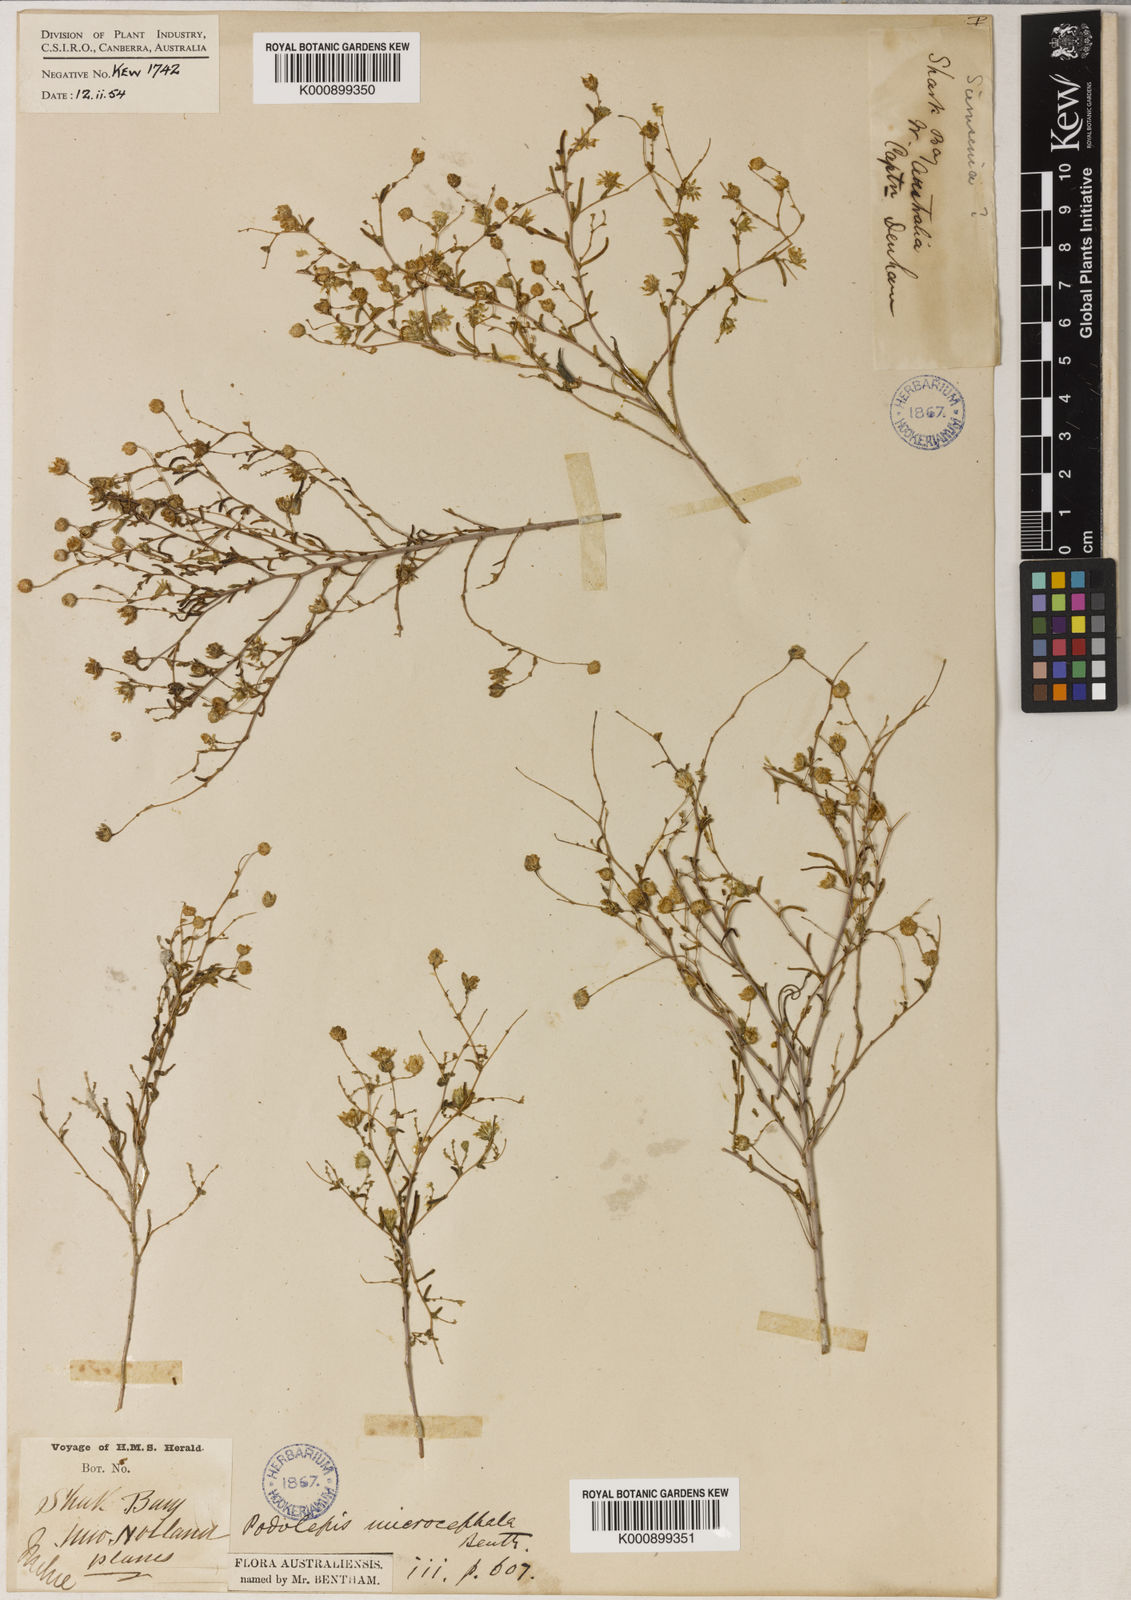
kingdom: Plantae
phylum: Tracheophyta
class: Magnoliopsida
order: Asterales
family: Asteraceae
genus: Siemssenia
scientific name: Siemssenia microcephala
